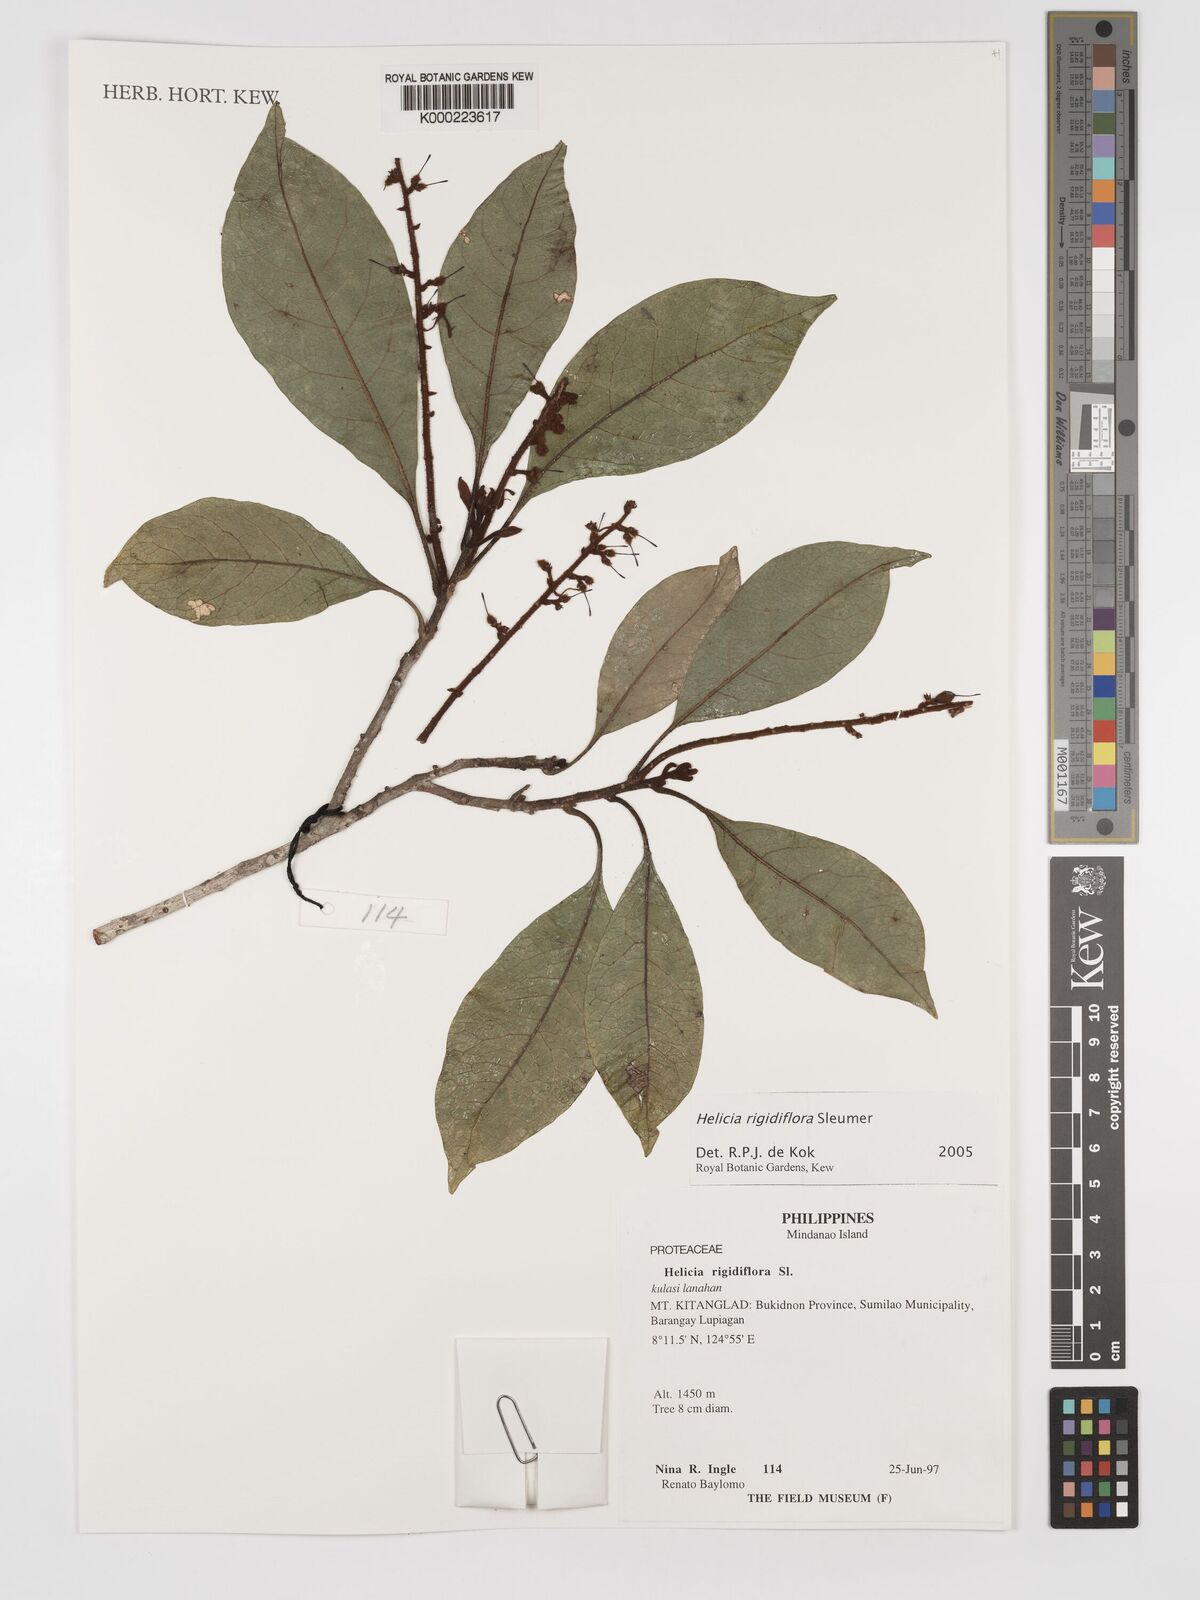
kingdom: Plantae
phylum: Tracheophyta
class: Magnoliopsida
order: Proteales
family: Proteaceae
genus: Helicia
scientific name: Helicia rigidiflora
